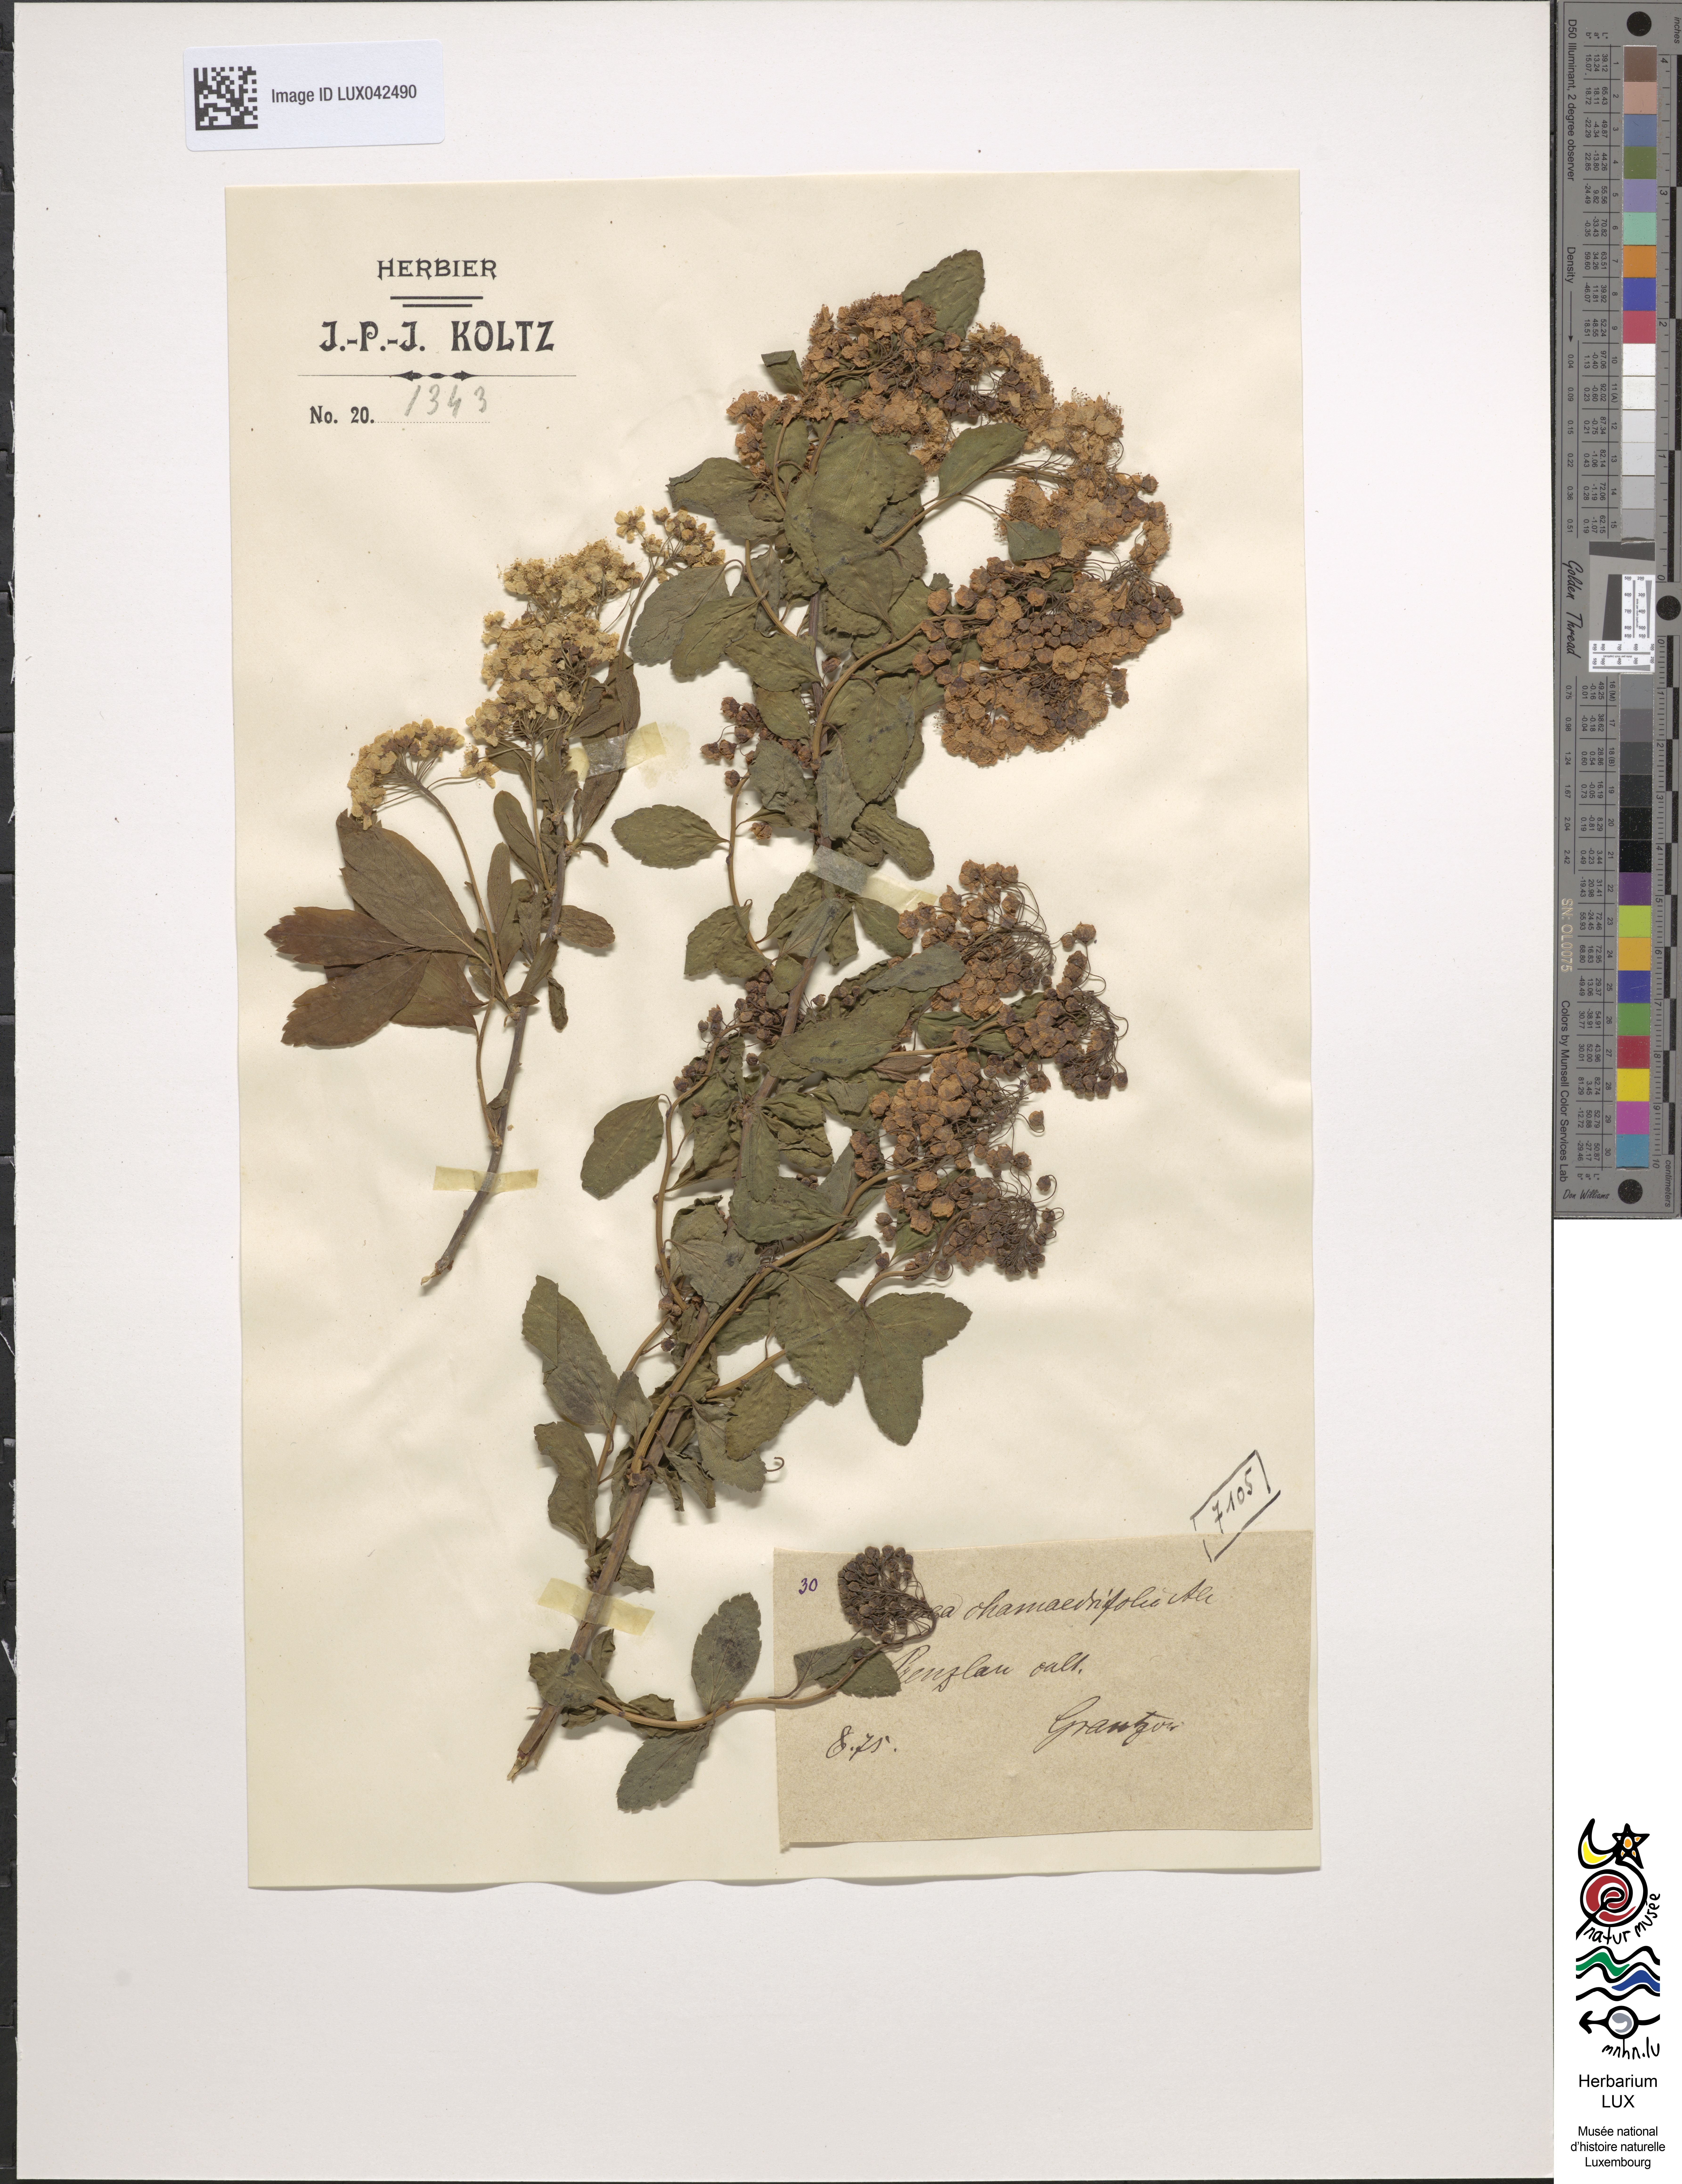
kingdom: Plantae
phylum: Tracheophyta
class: Magnoliopsida
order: Rosales
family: Rosaceae
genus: Spiraea
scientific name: Spiraea chamaedryfolia
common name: Elm-leaved spiraea
